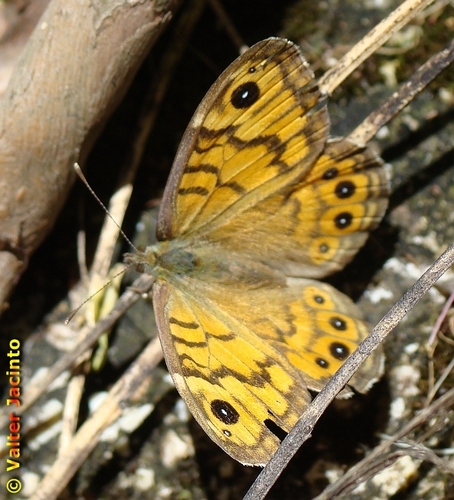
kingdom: Animalia
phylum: Arthropoda
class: Insecta
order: Lepidoptera
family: Nymphalidae
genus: Pararge
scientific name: Pararge Lasiommata megera
